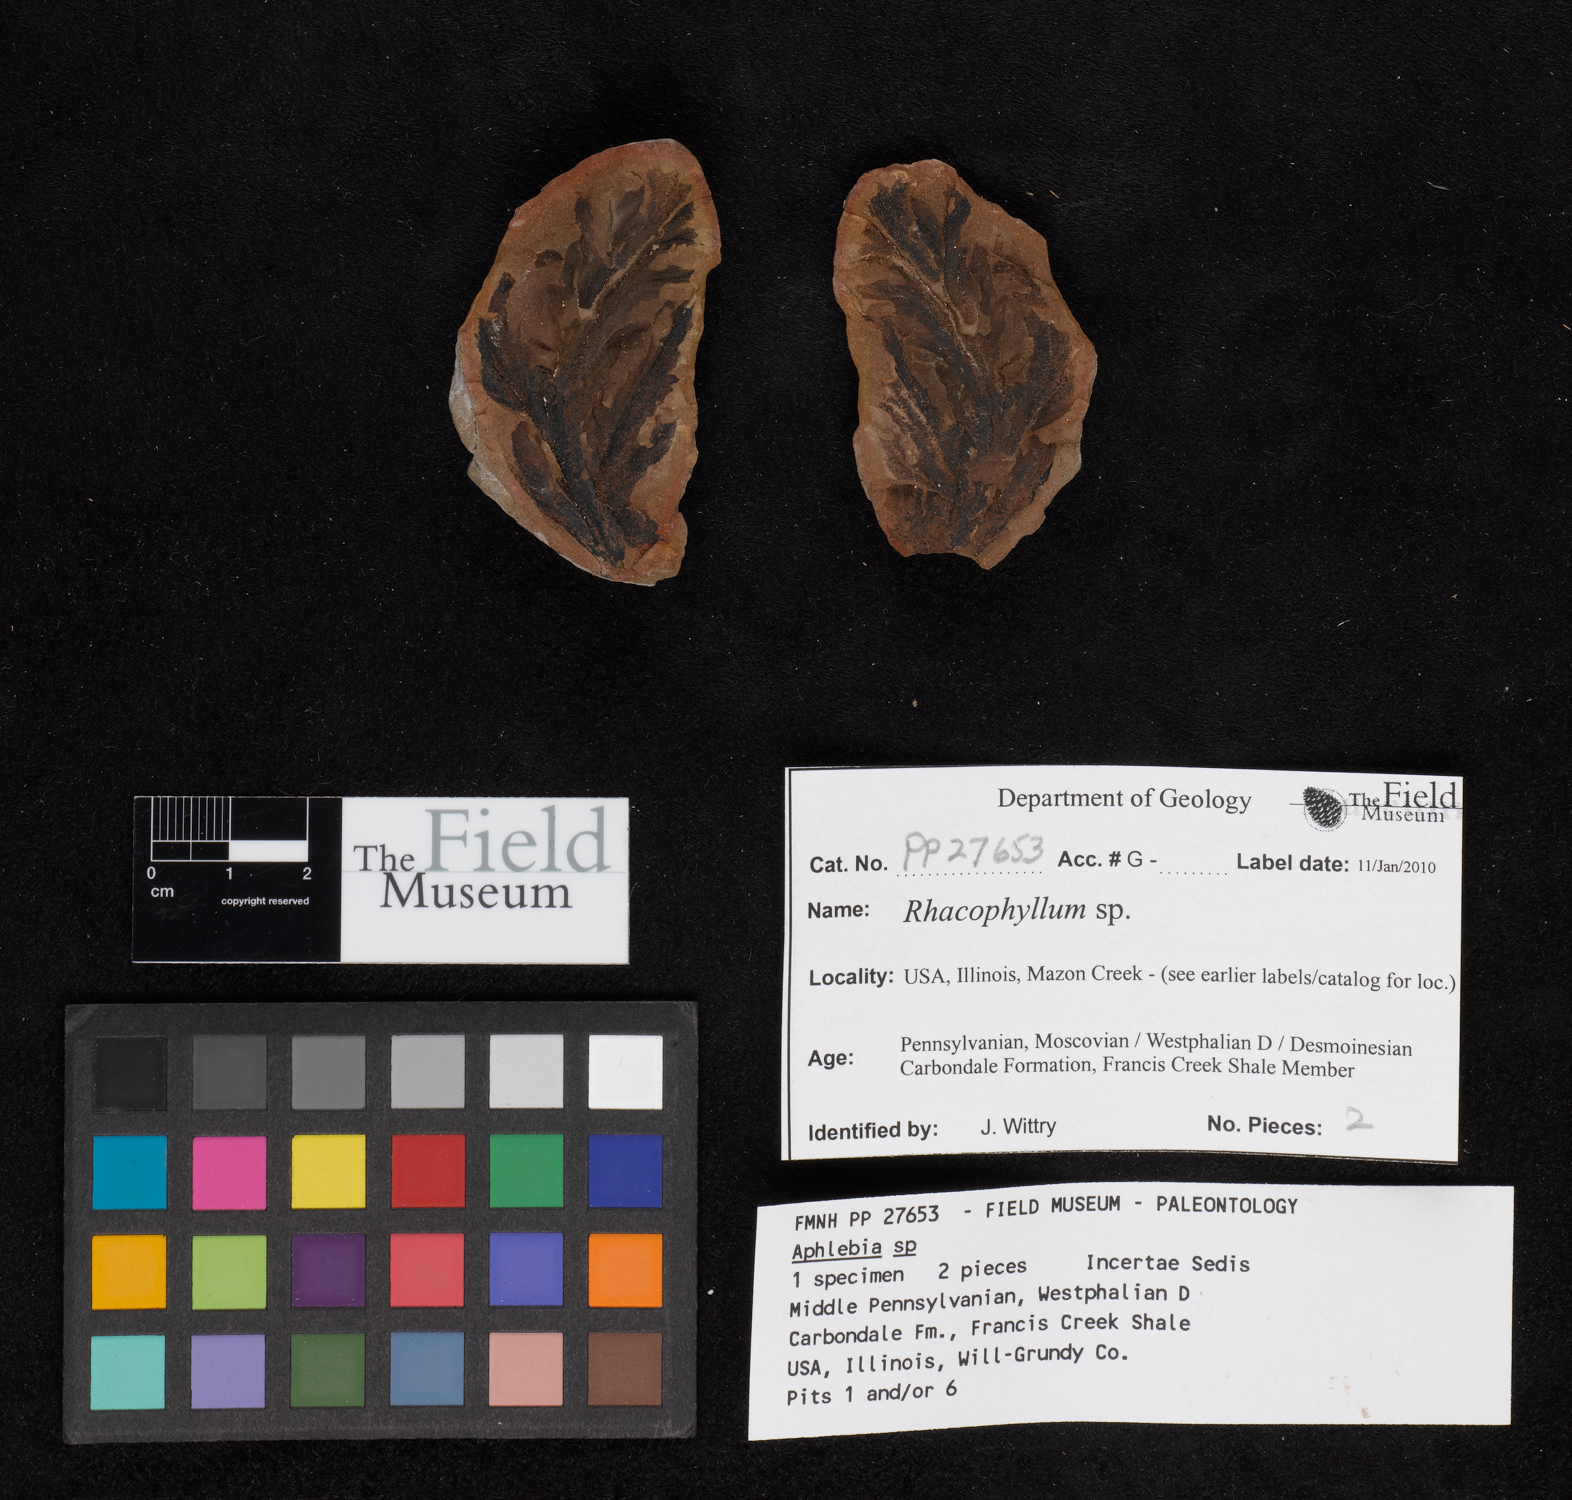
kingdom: Plantae
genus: Rhacophyllum
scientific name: Rhacophyllum
